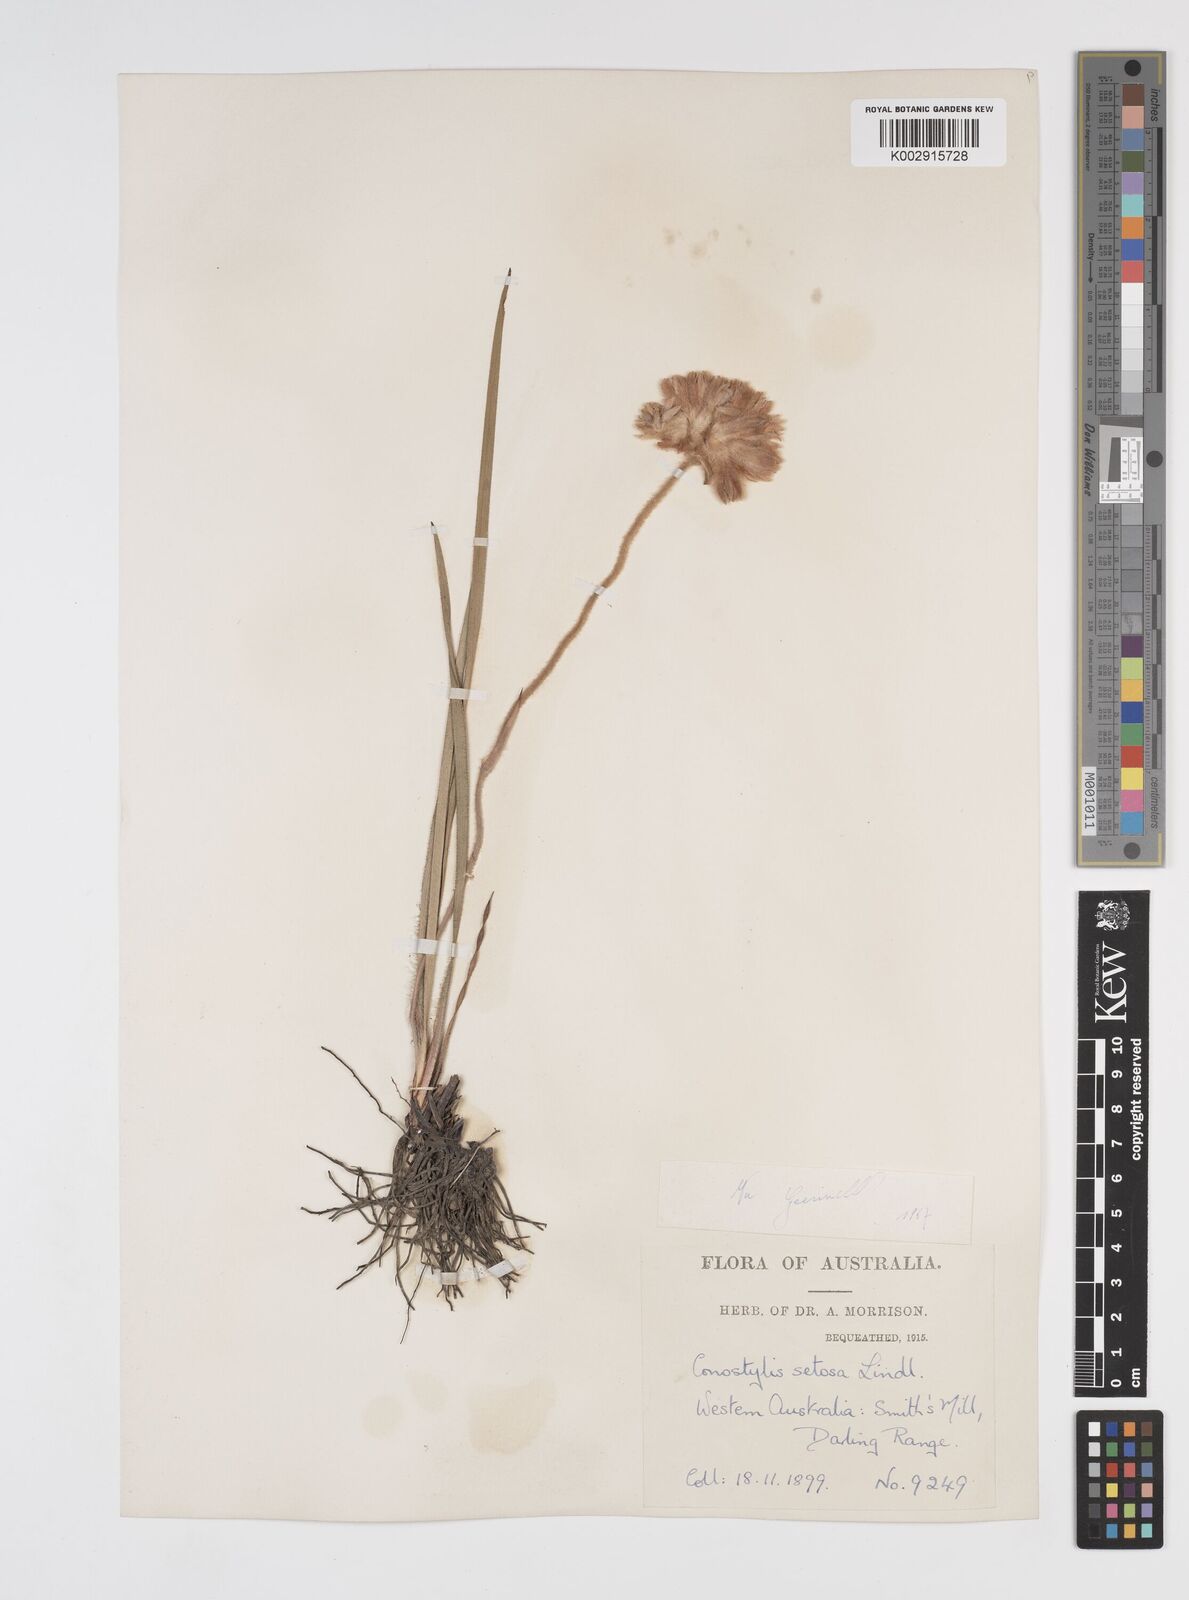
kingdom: Plantae
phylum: Tracheophyta
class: Liliopsida
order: Commelinales
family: Haemodoraceae
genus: Conostylis
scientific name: Conostylis setosa
